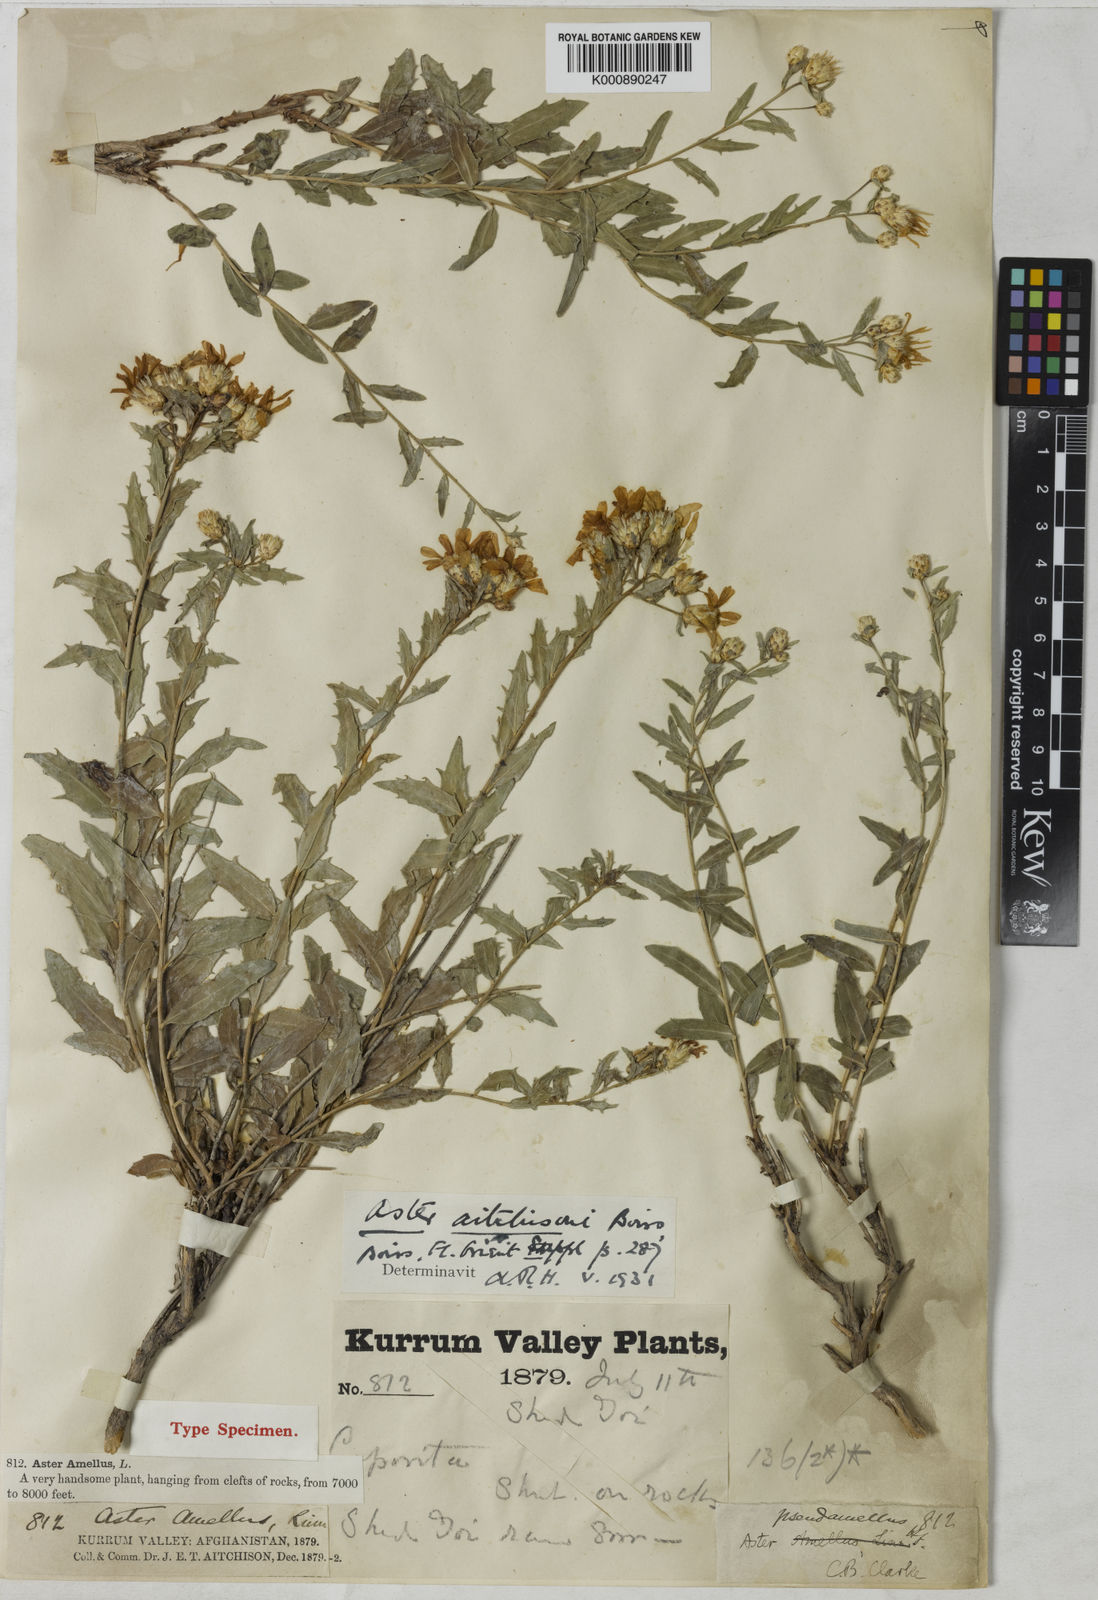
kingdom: Plantae
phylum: Tracheophyta
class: Magnoliopsida
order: Asterales
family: Asteraceae
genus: Aster
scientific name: Aster aitchisonii
